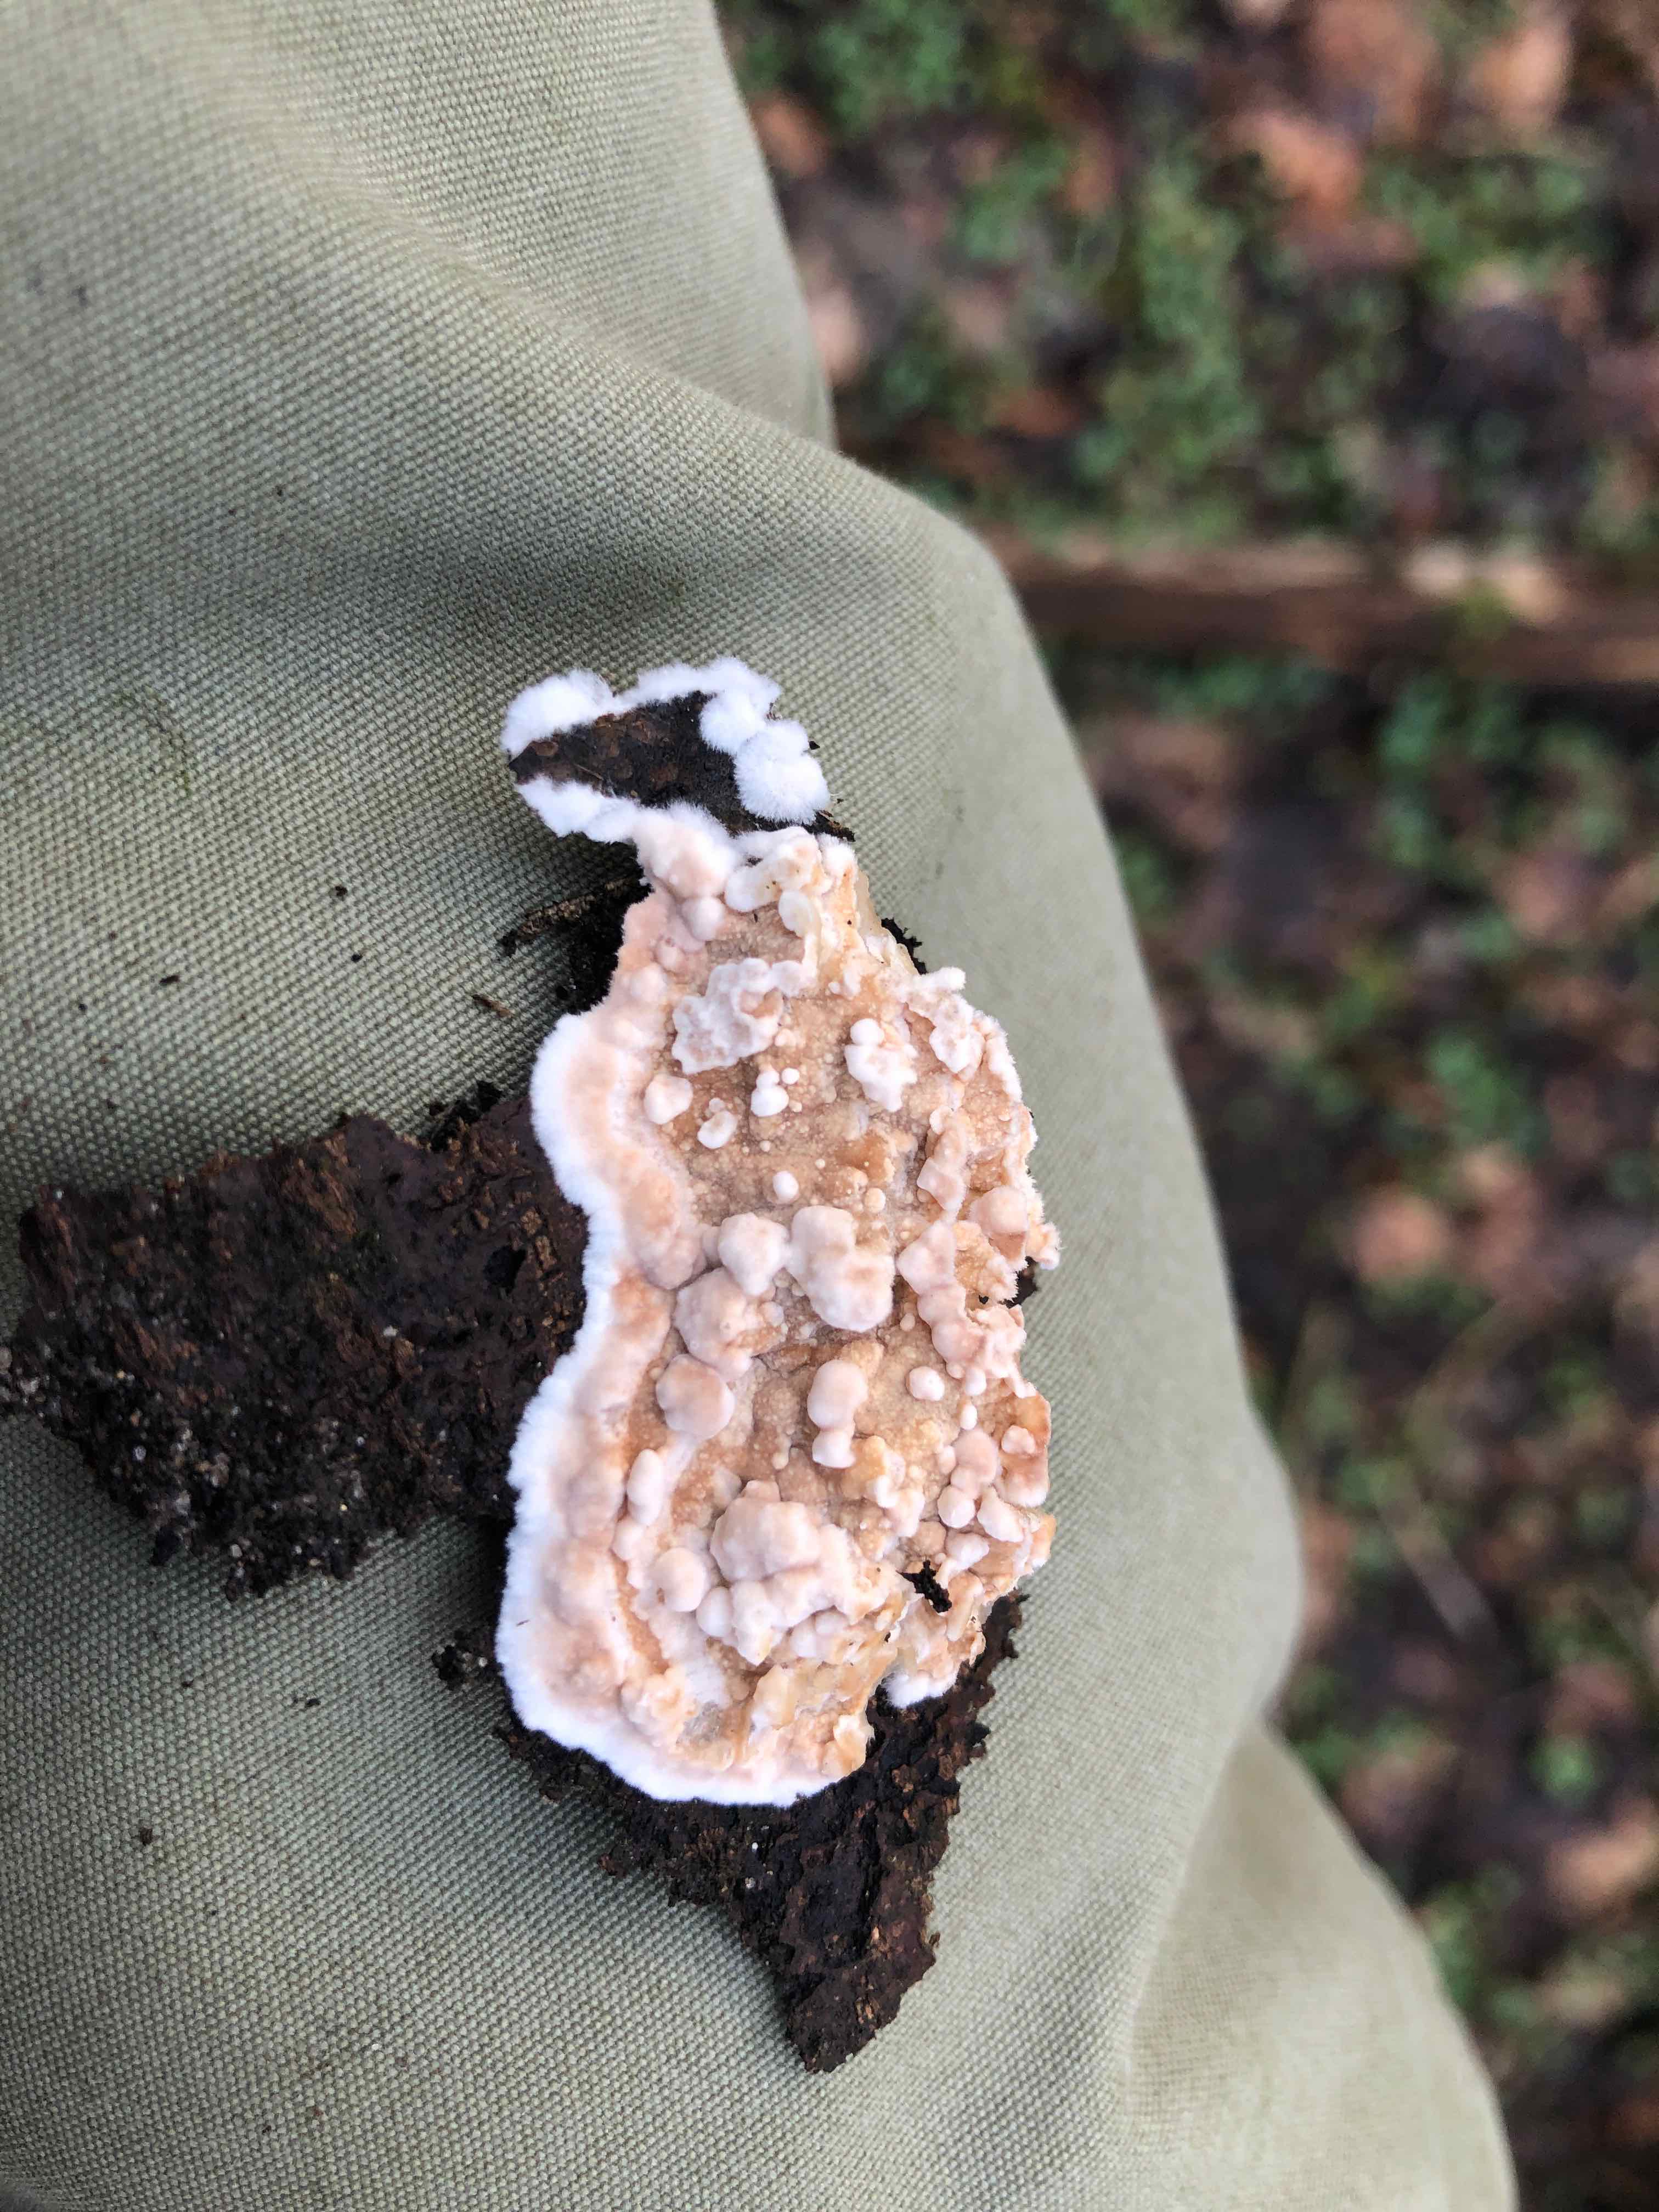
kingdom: Fungi
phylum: Basidiomycota
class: Agaricomycetes
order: Agaricales
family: Physalacriaceae
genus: Cylindrobasidium
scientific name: Cylindrobasidium evolvens
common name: sprækkehinde
